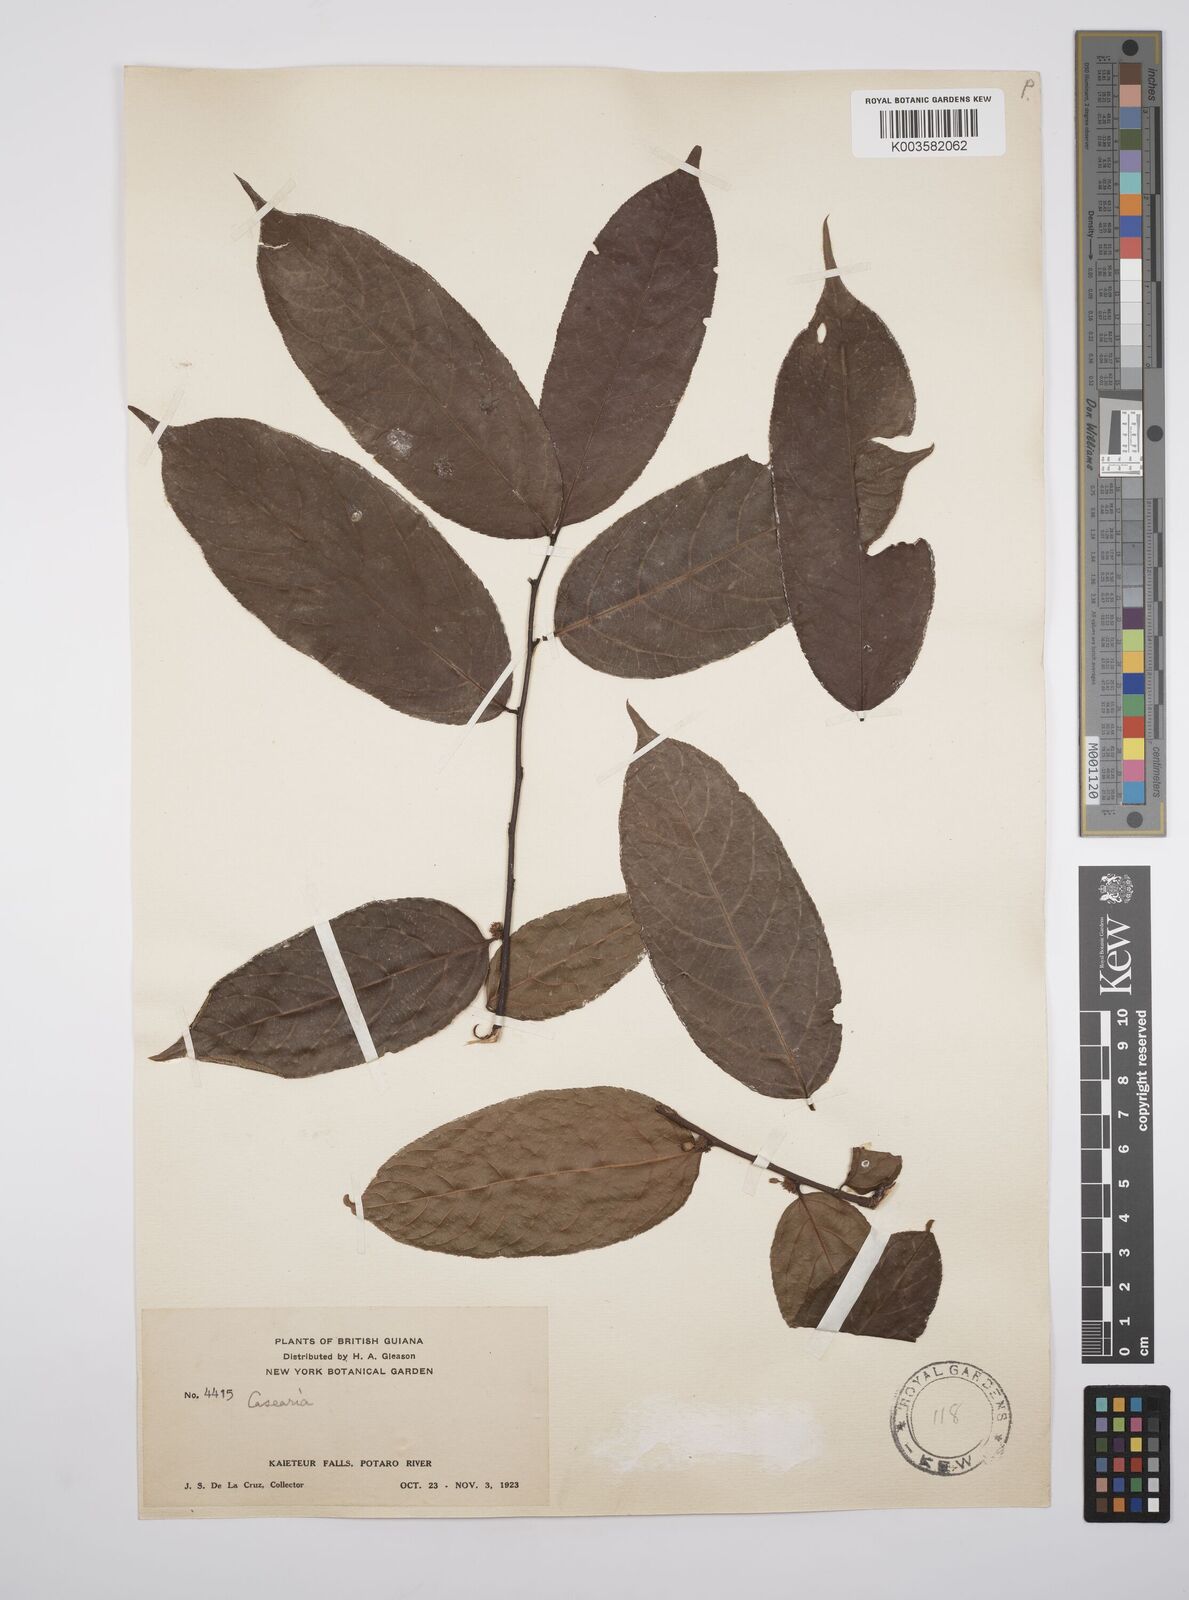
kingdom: Plantae
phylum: Tracheophyta
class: Magnoliopsida
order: Malpighiales
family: Salicaceae
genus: Casearia
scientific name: Casearia ulmifolia
